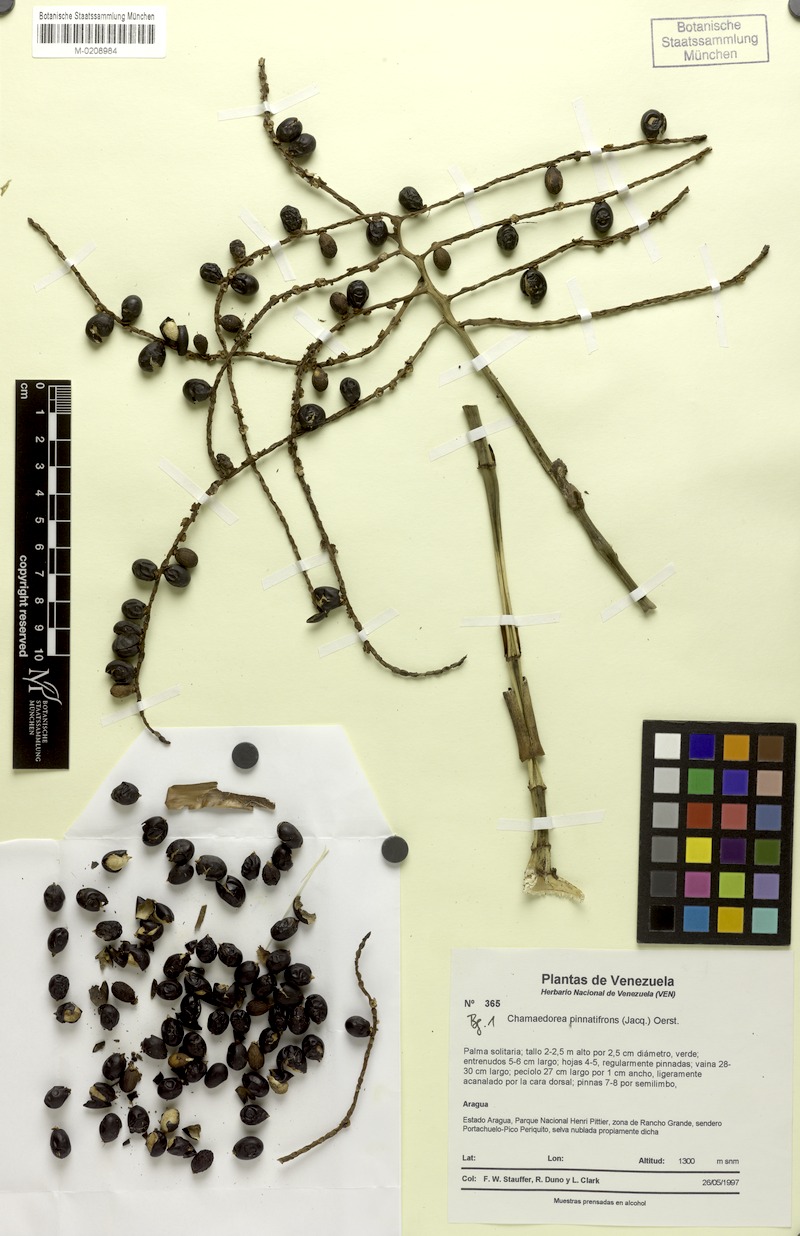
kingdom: Plantae
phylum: Tracheophyta
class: Liliopsida
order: Arecales
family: Arecaceae
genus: Chamaedorea
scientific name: Chamaedorea pinnatifrons
